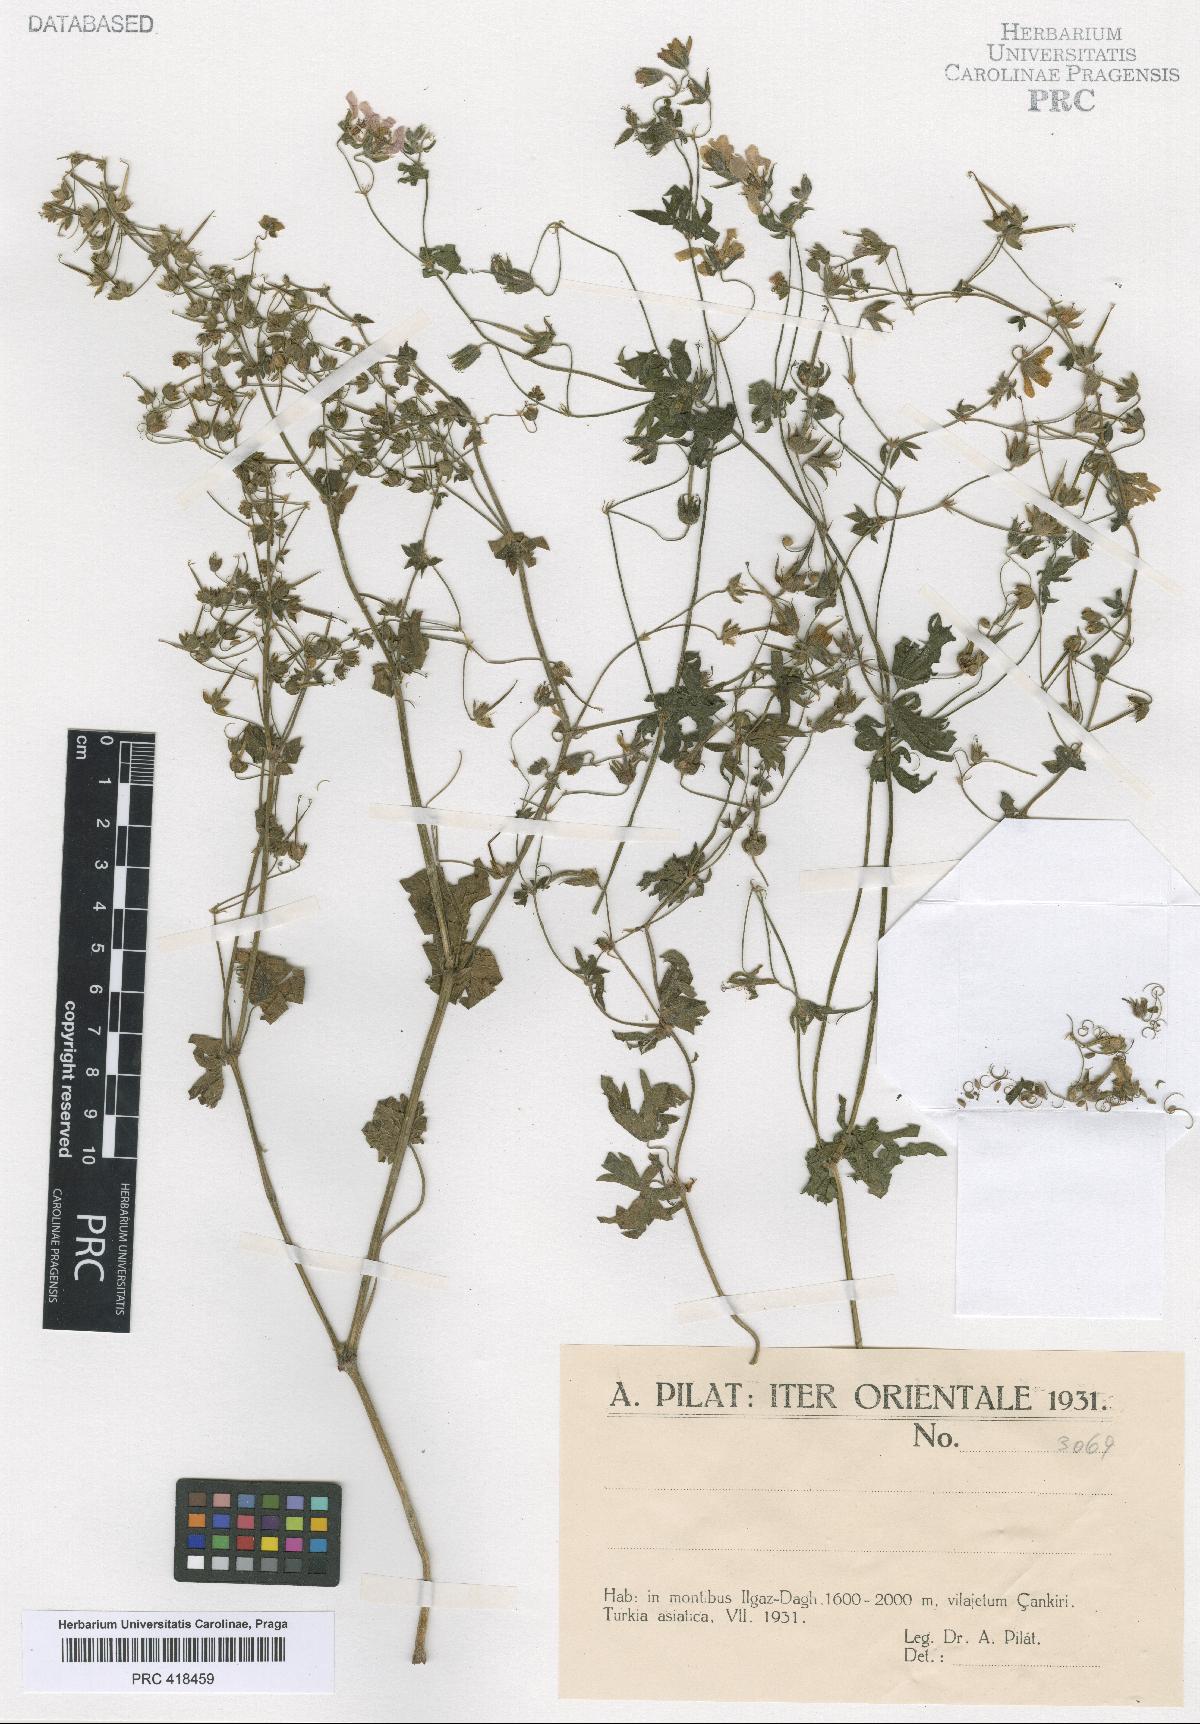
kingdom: Plantae
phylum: Tracheophyta
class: Magnoliopsida
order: Geraniales
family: Geraniaceae
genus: Geranium
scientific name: Geranium asphodeloides
